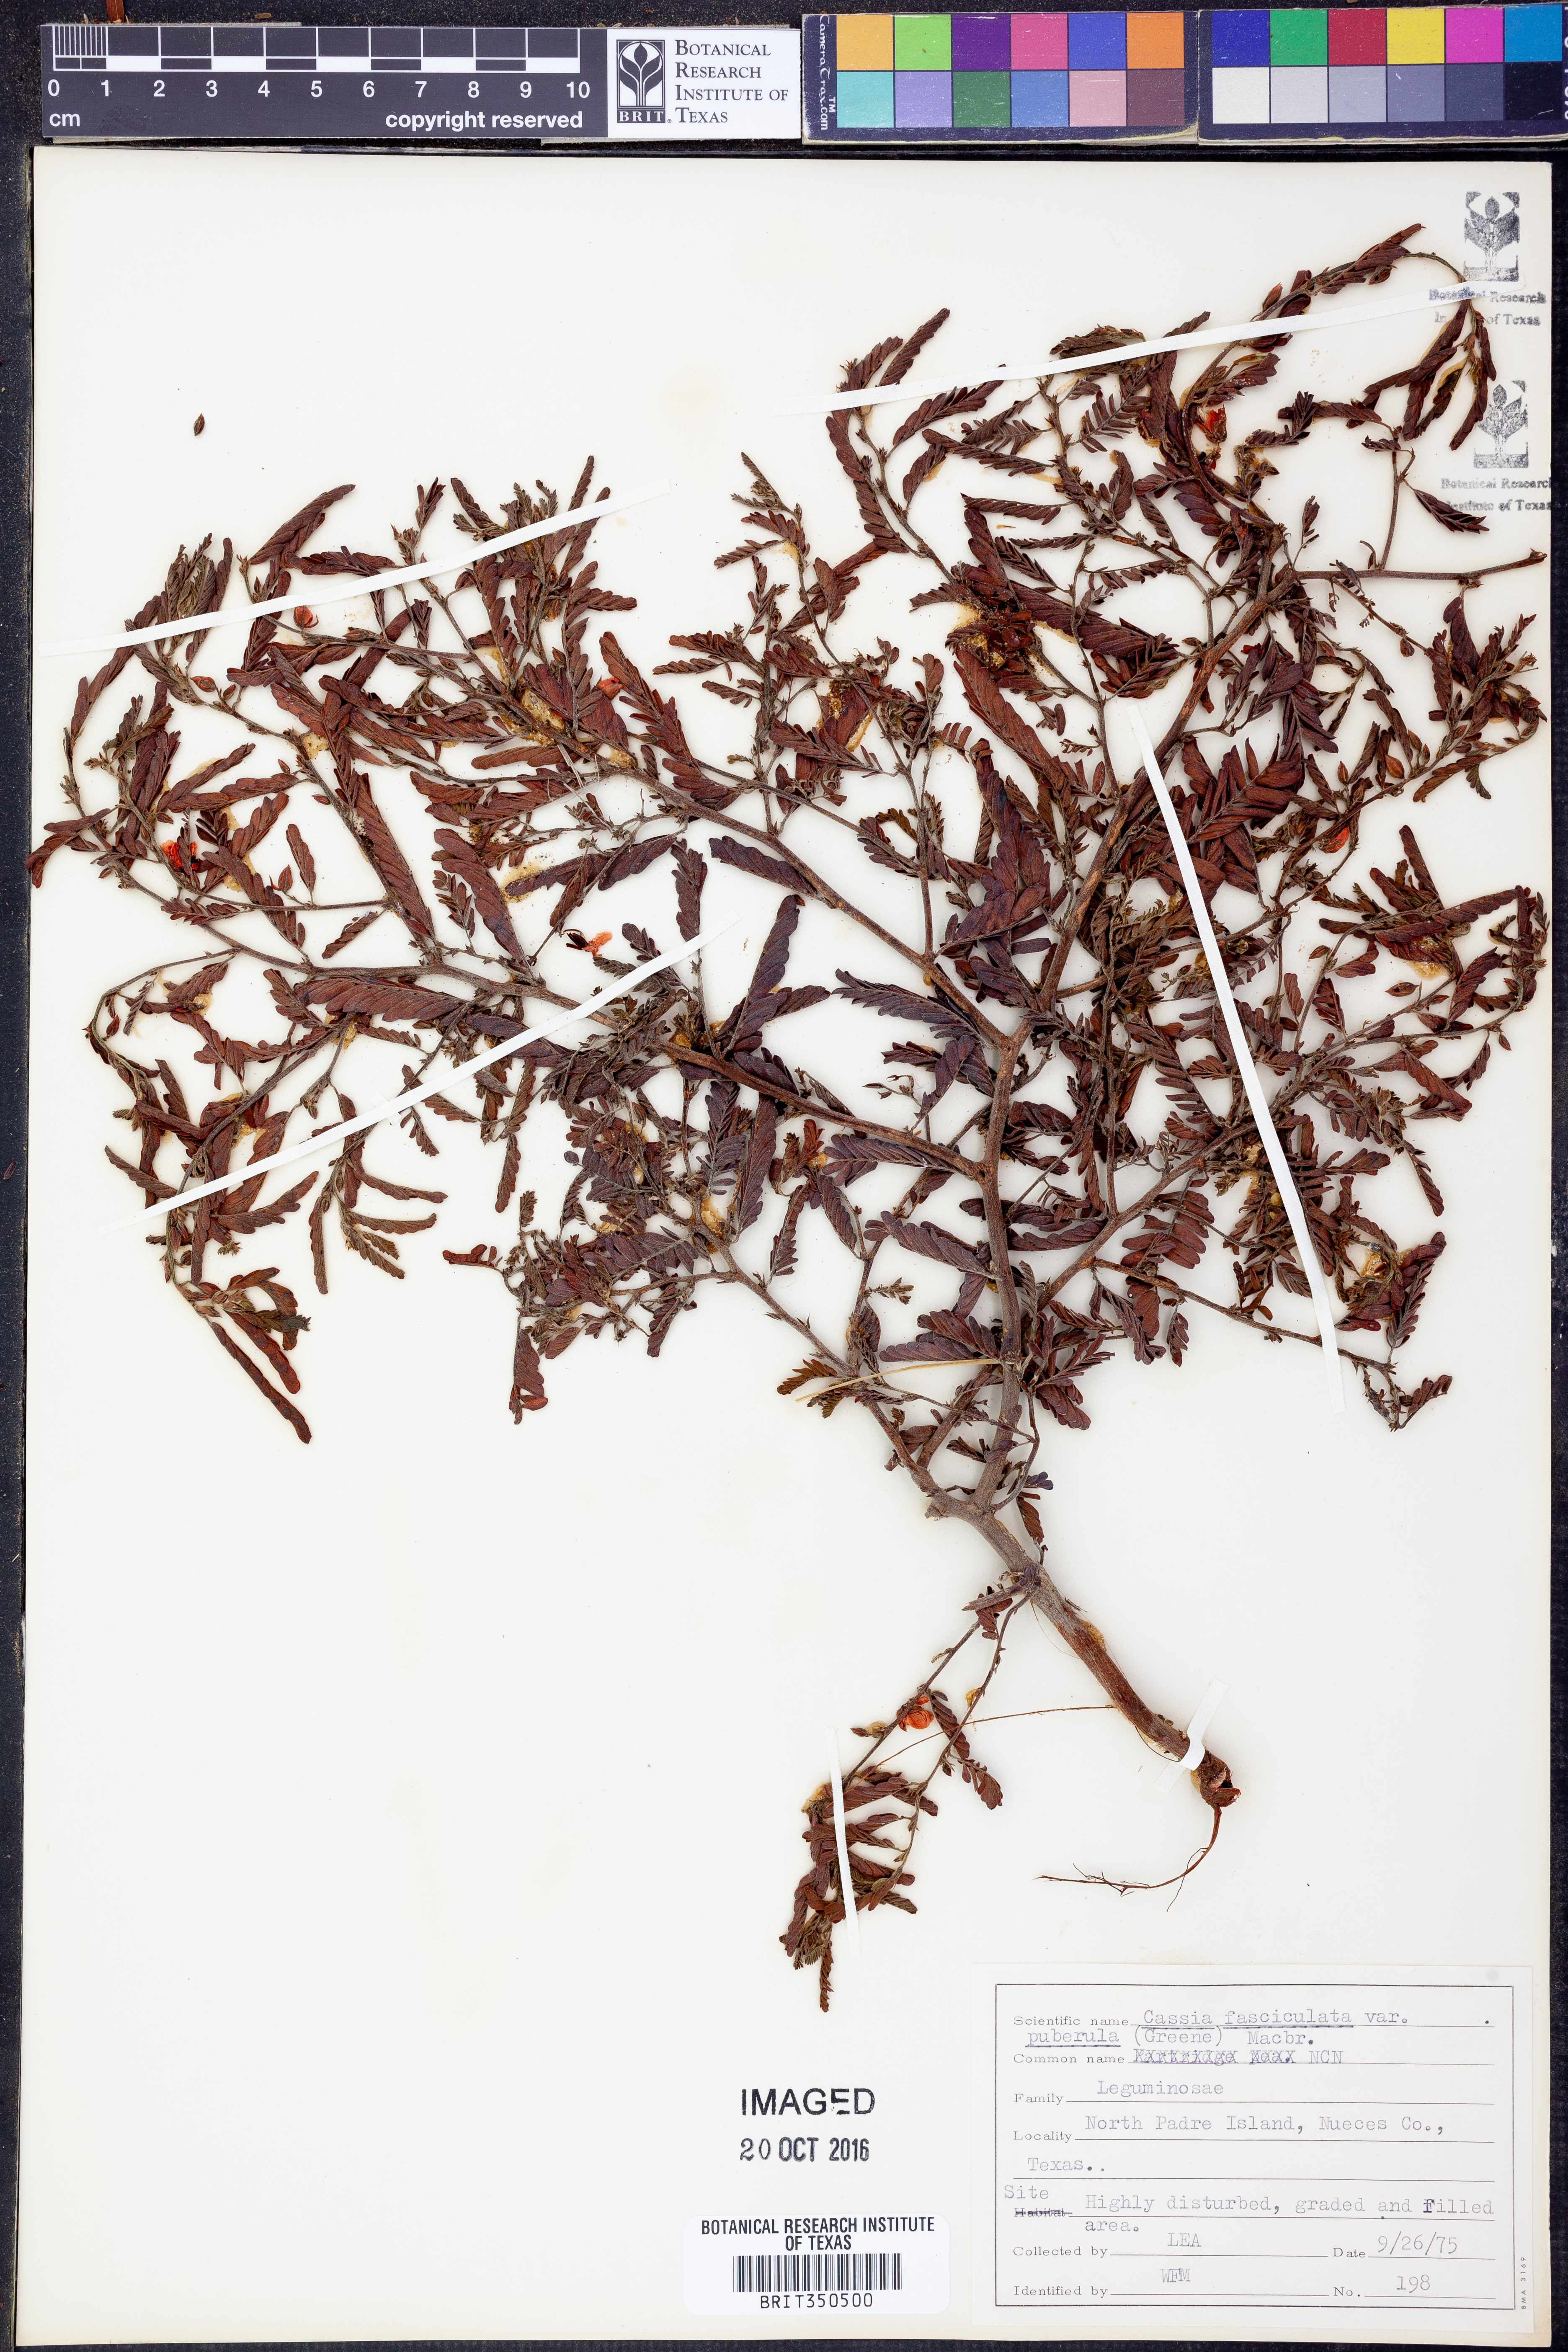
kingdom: Plantae
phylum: Tracheophyta
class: Magnoliopsida
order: Fabales
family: Fabaceae
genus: Chamaecrista
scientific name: Chamaecrista fasciculata
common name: Golden cassia
